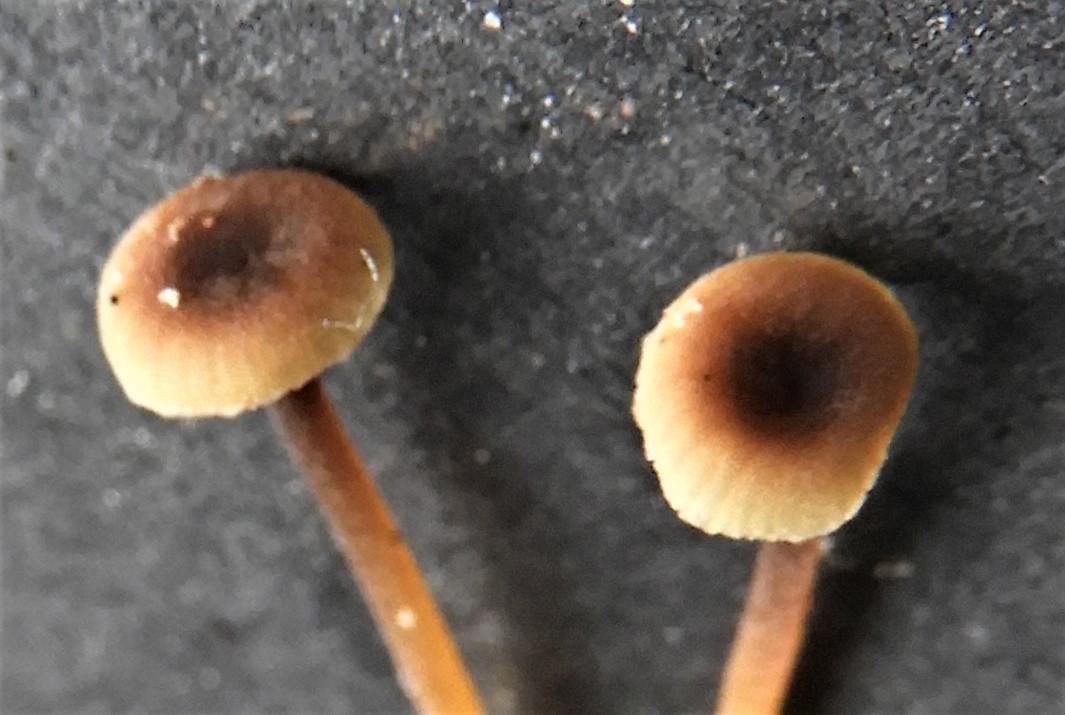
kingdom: Fungi
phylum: Basidiomycota
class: Agaricomycetes
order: Hymenochaetales
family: Rickenellaceae
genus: Rickenella
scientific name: Rickenella swartzii
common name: finstokket mosnavlehat
